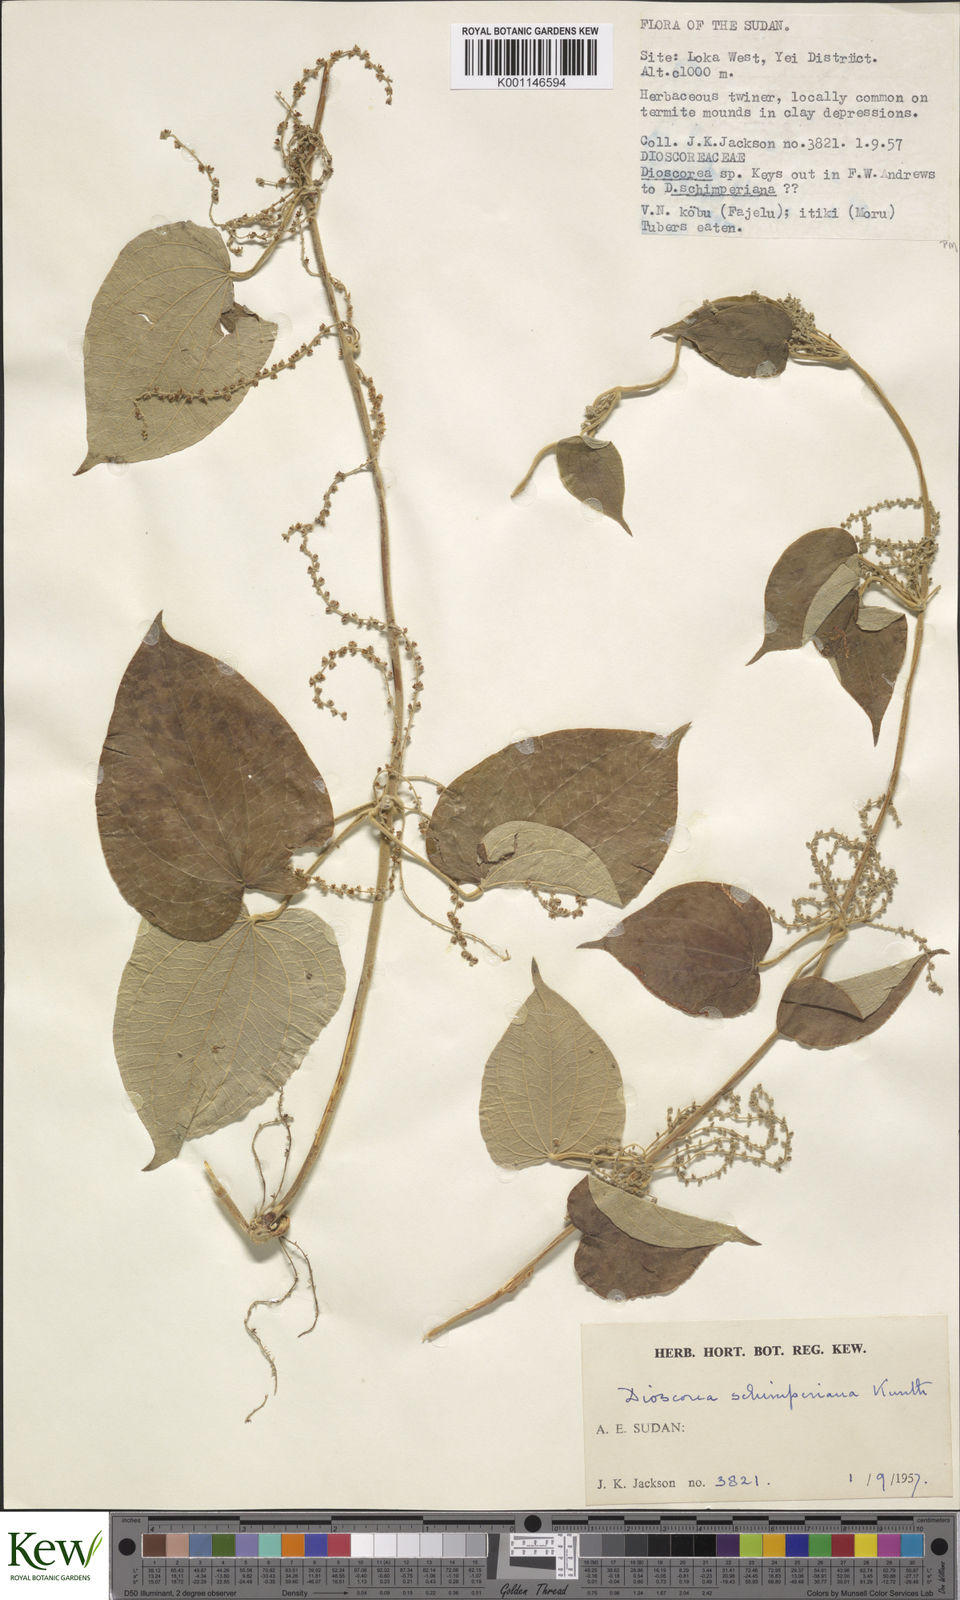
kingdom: Plantae
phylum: Tracheophyta
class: Liliopsida
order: Dioscoreales
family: Dioscoreaceae
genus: Dioscorea
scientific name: Dioscorea schimperiana
